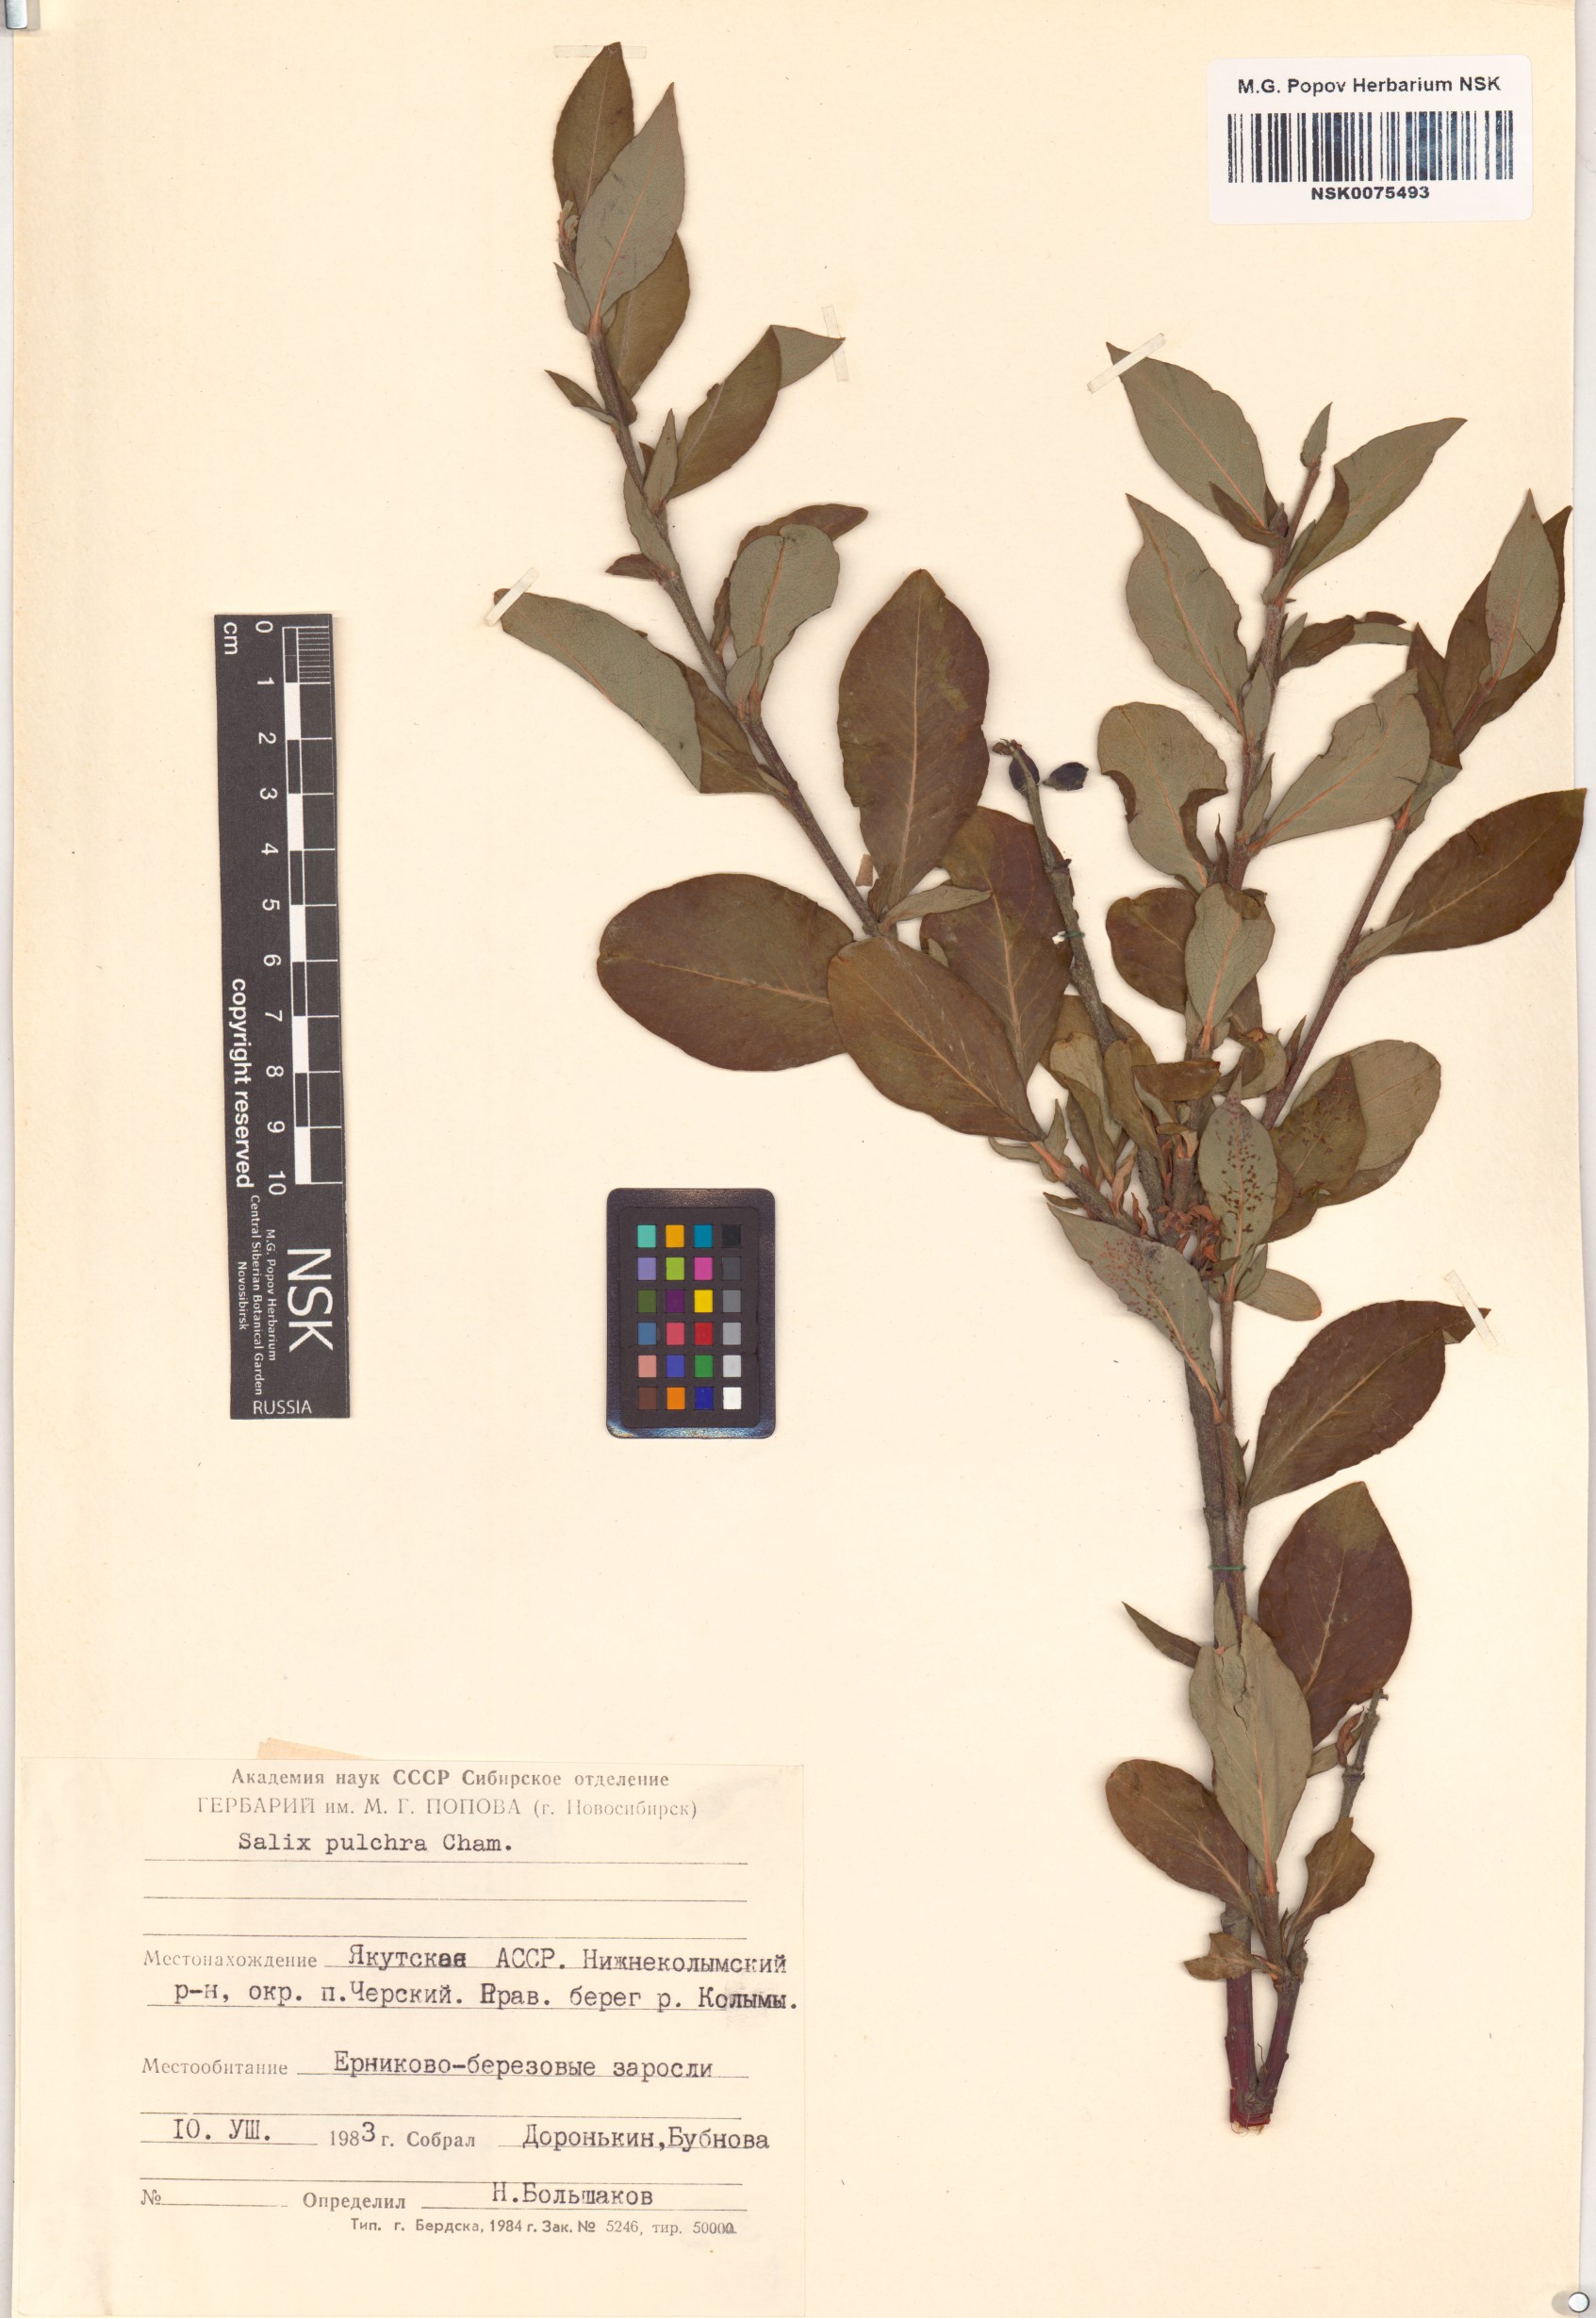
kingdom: Plantae
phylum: Tracheophyta
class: Magnoliopsida
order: Malpighiales
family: Salicaceae
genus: Salix
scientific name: Salix pulchra
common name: Diamond-leaved willow
